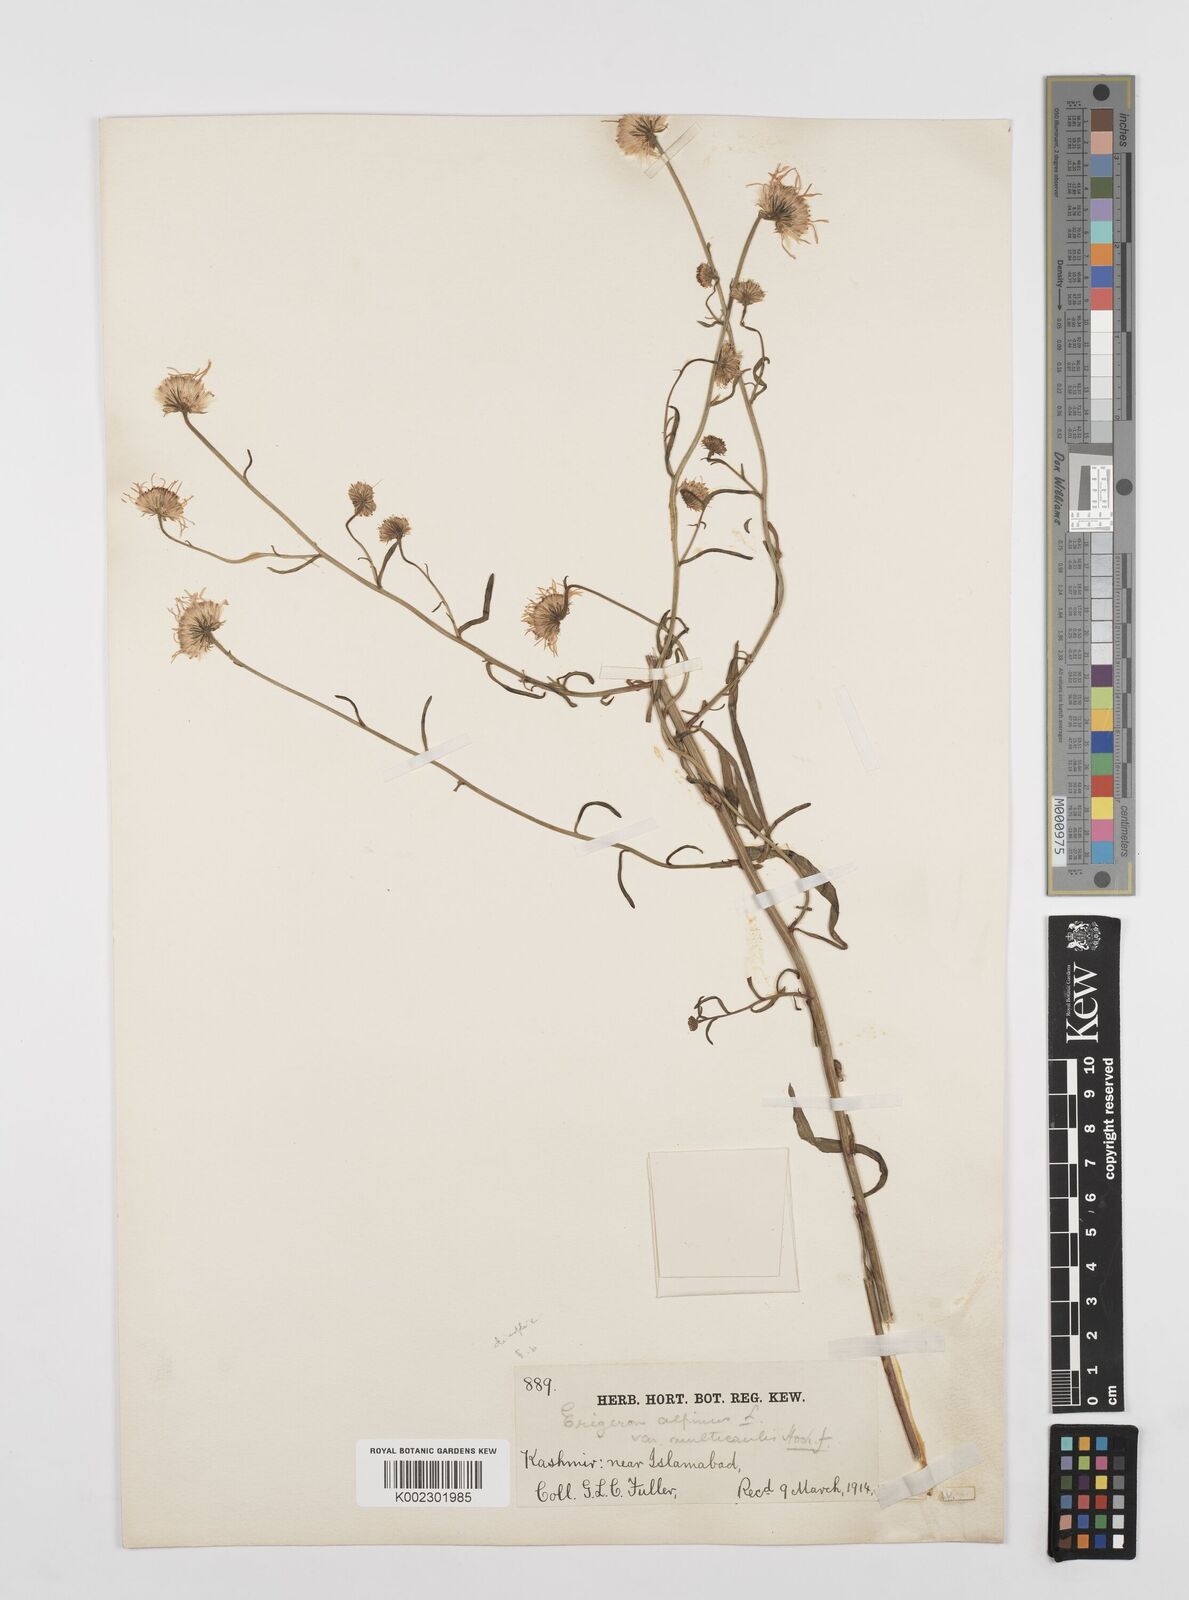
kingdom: Plantae
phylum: Tracheophyta
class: Magnoliopsida
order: Asterales
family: Asteraceae
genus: Erigeron
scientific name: Erigeron alpinus
